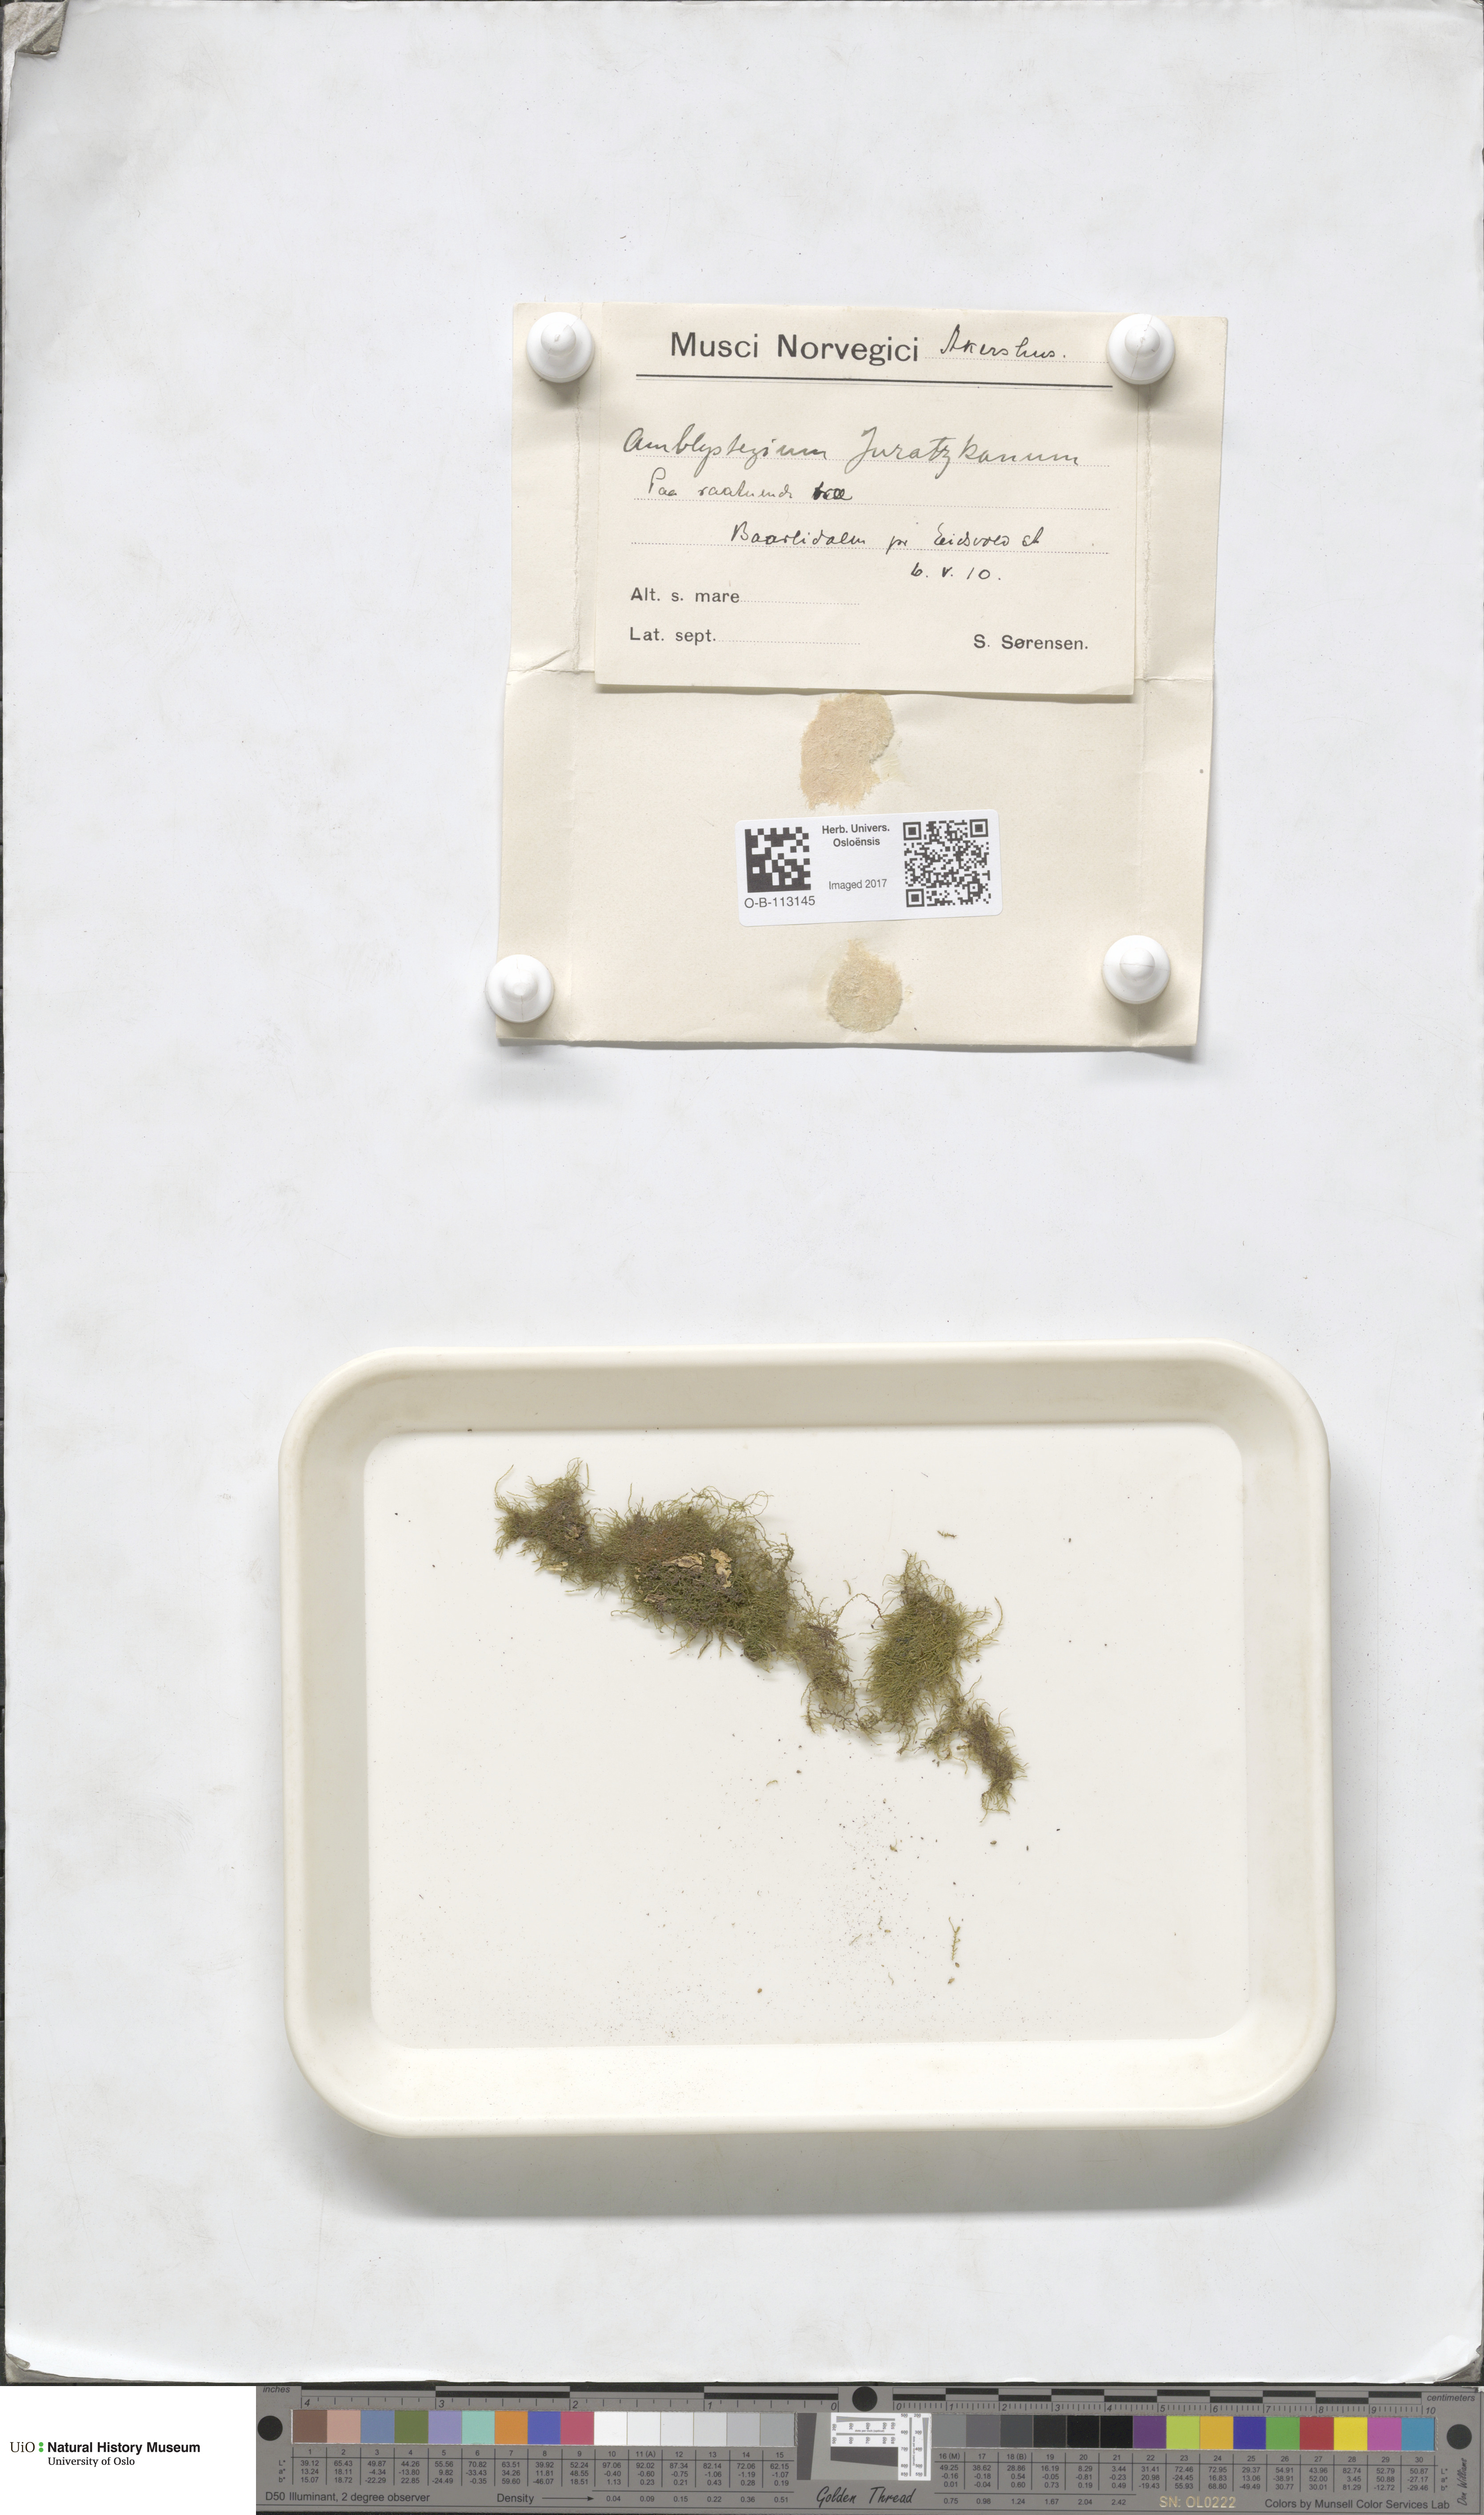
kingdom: Plantae
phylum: Bryophyta
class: Bryopsida
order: Hypnales
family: Amblystegiaceae
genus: Amblystegium
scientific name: Amblystegium serpens
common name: Jurkatzka's feather moss
